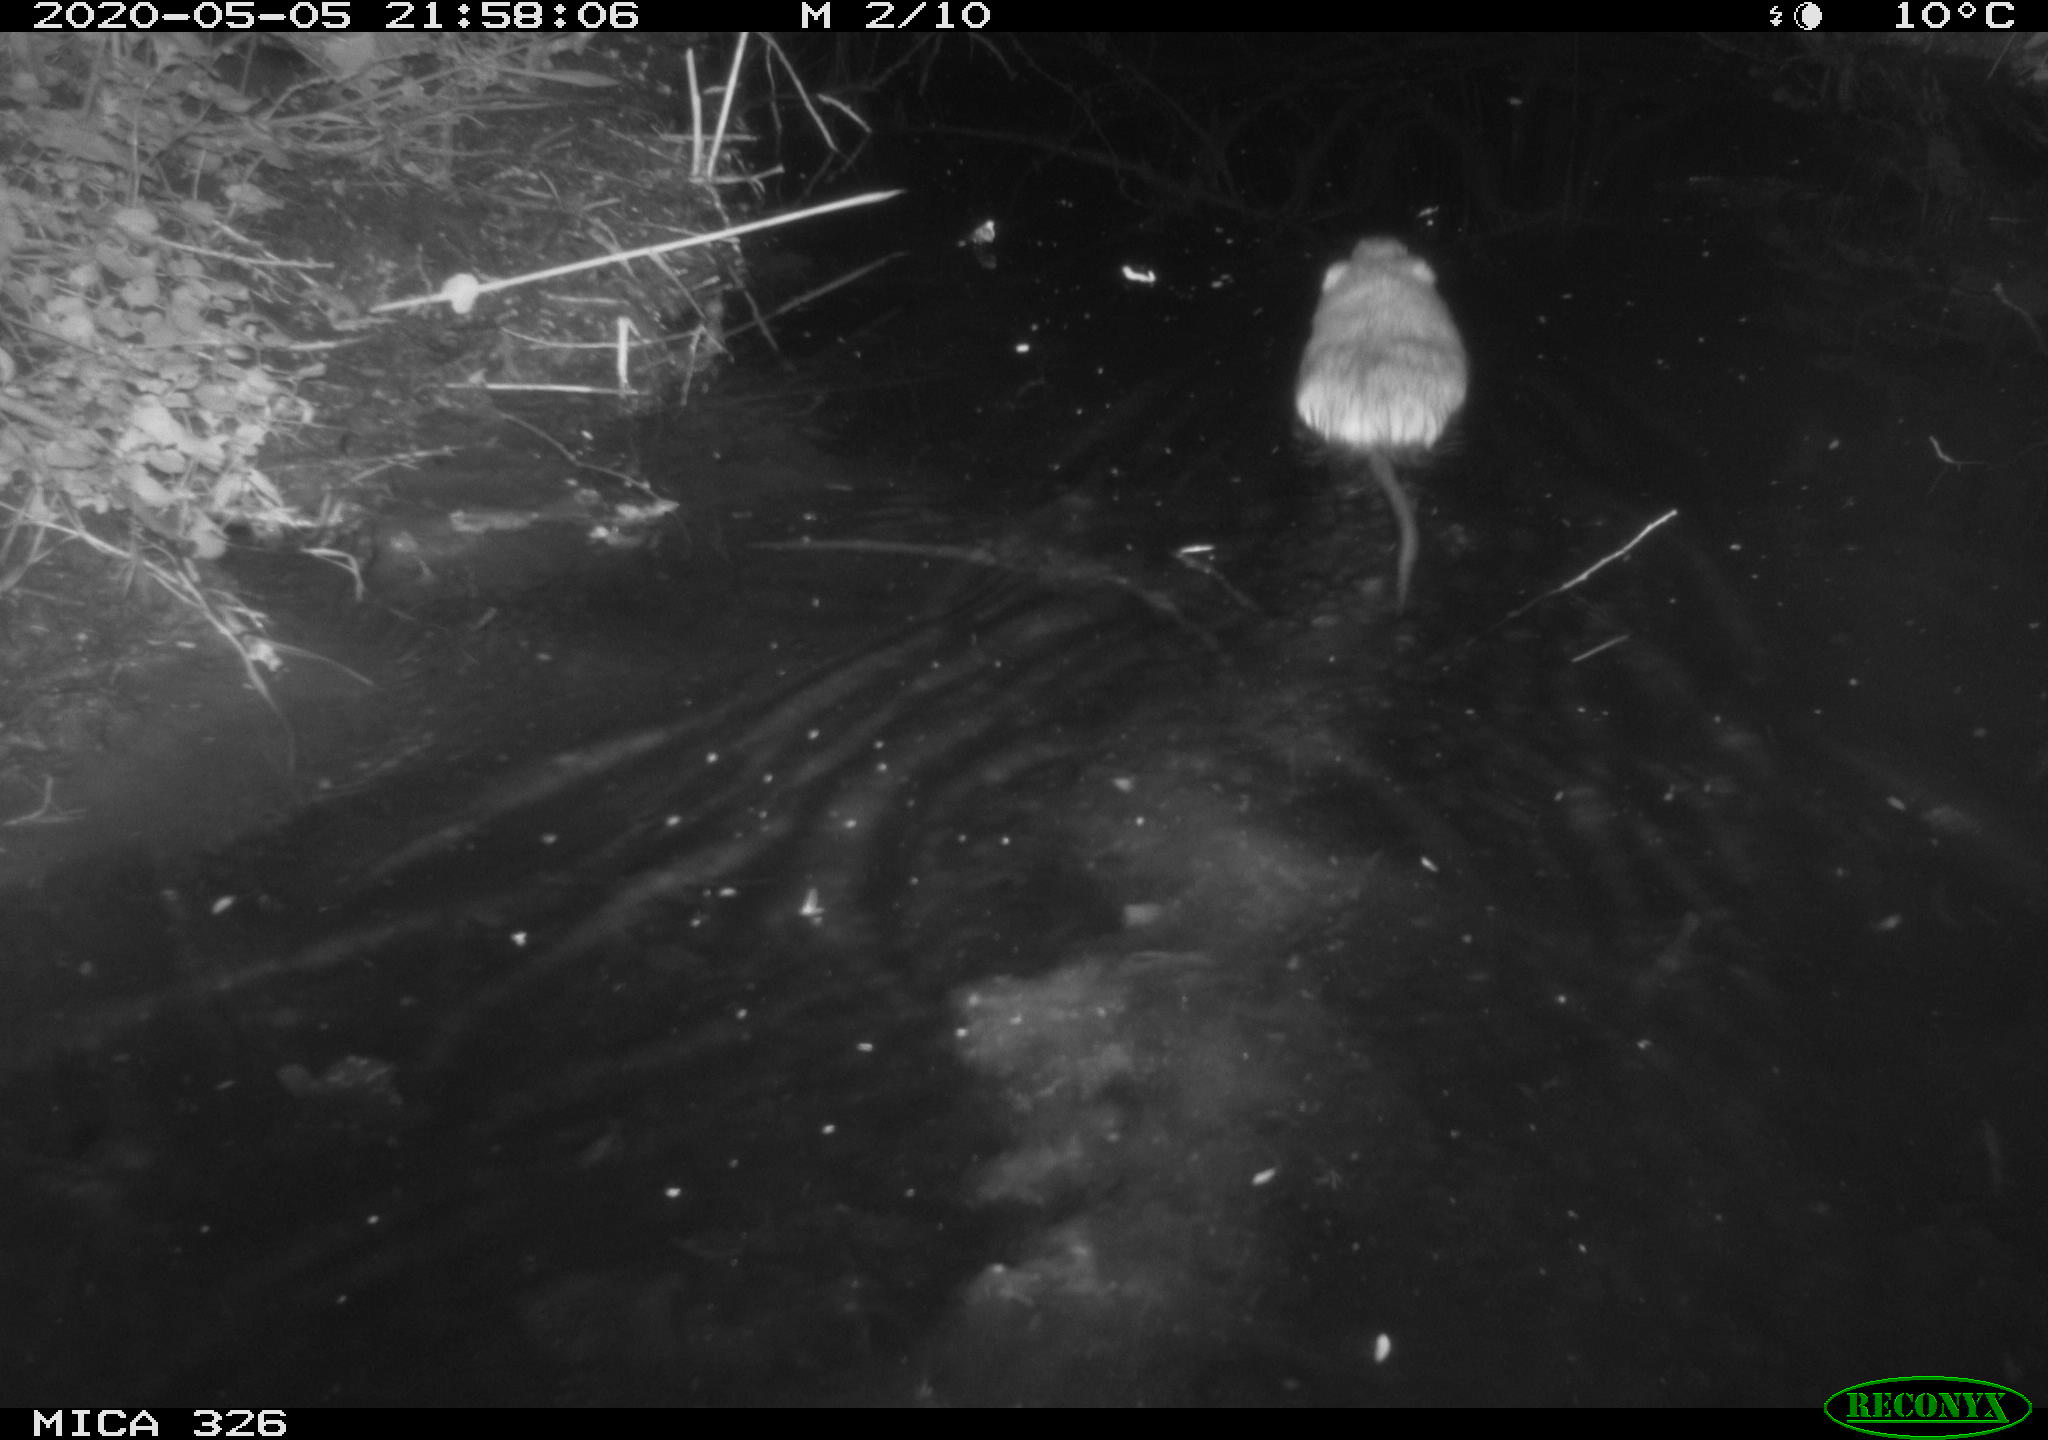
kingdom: Animalia
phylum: Chordata
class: Mammalia
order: Rodentia
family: Myocastoridae
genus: Myocastor
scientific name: Myocastor coypus
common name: Coypu
